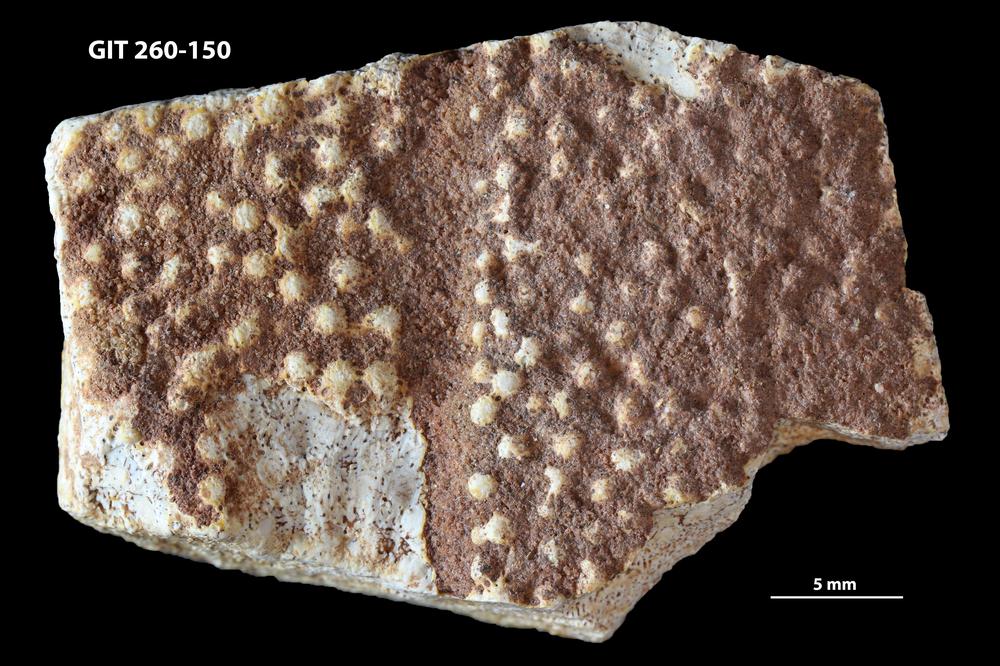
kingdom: Animalia
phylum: Chordata
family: Homostiidae
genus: Homostius
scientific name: Homostius
